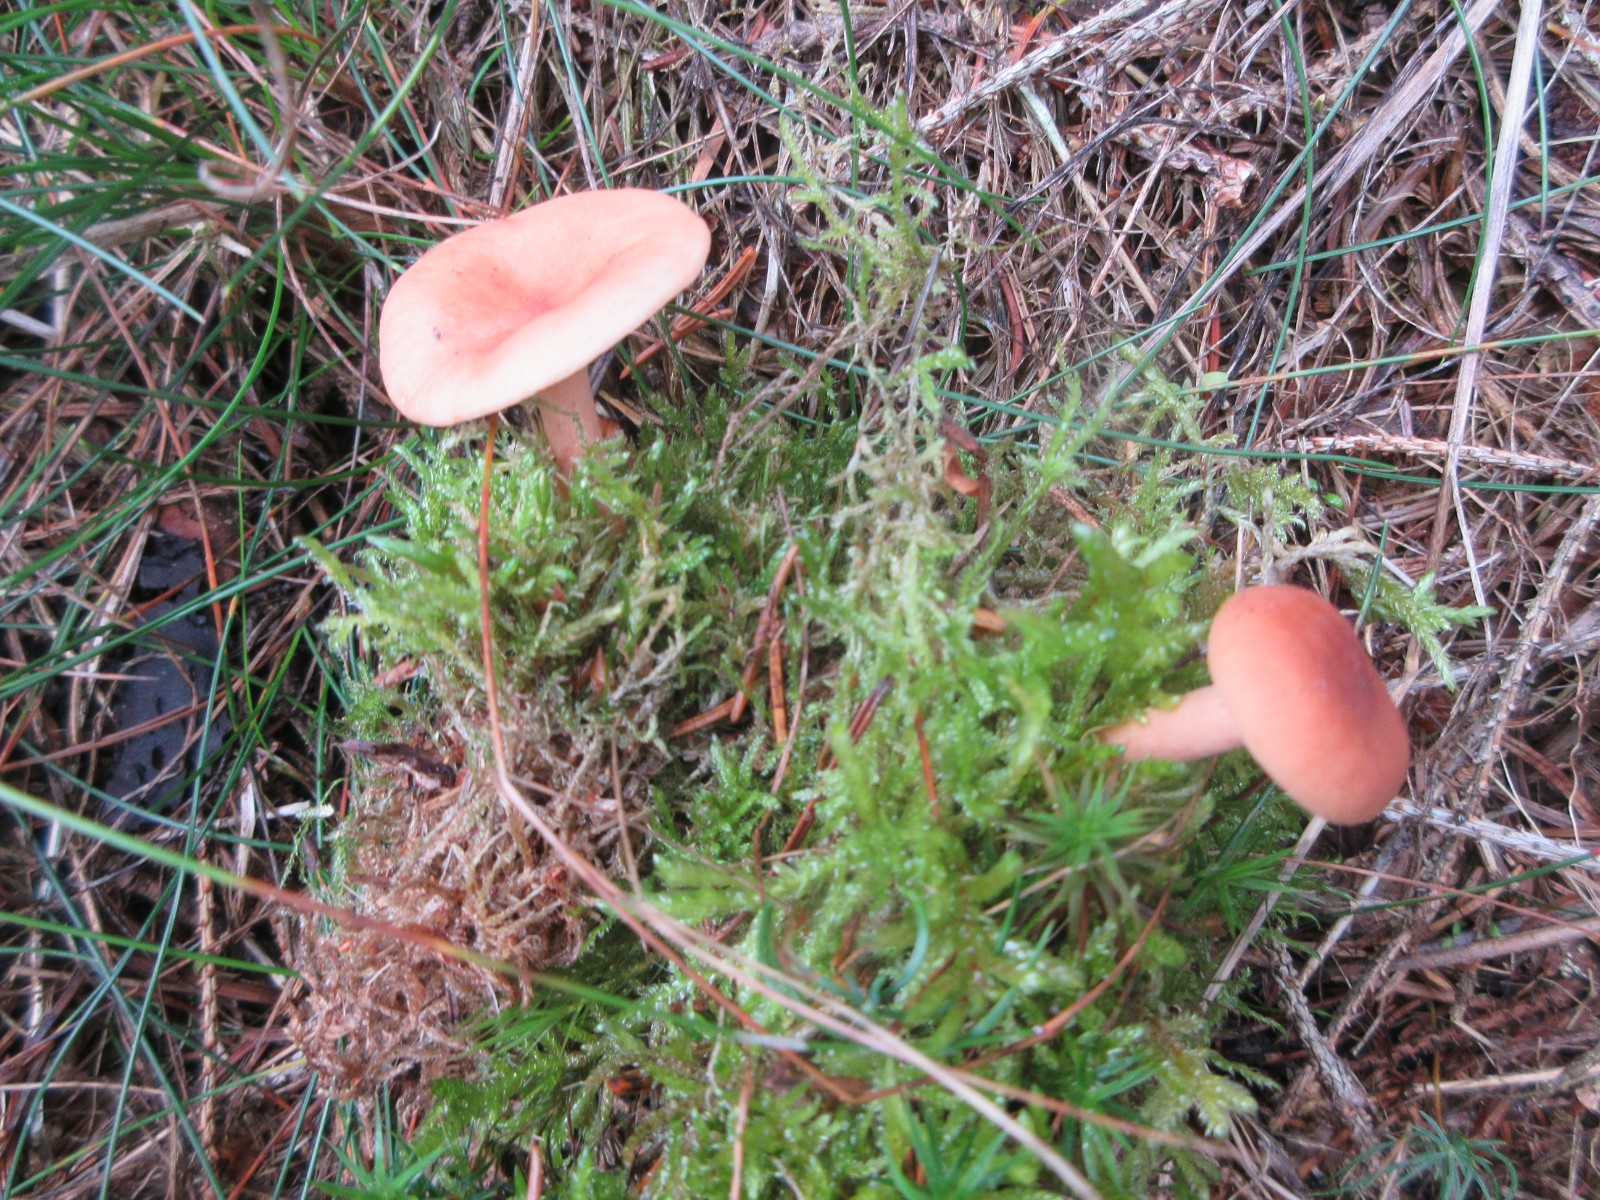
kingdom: Fungi
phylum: Basidiomycota
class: Agaricomycetes
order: Russulales
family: Russulaceae
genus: Lactarius
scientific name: Lactarius tabidus
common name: rynket mælkehat
